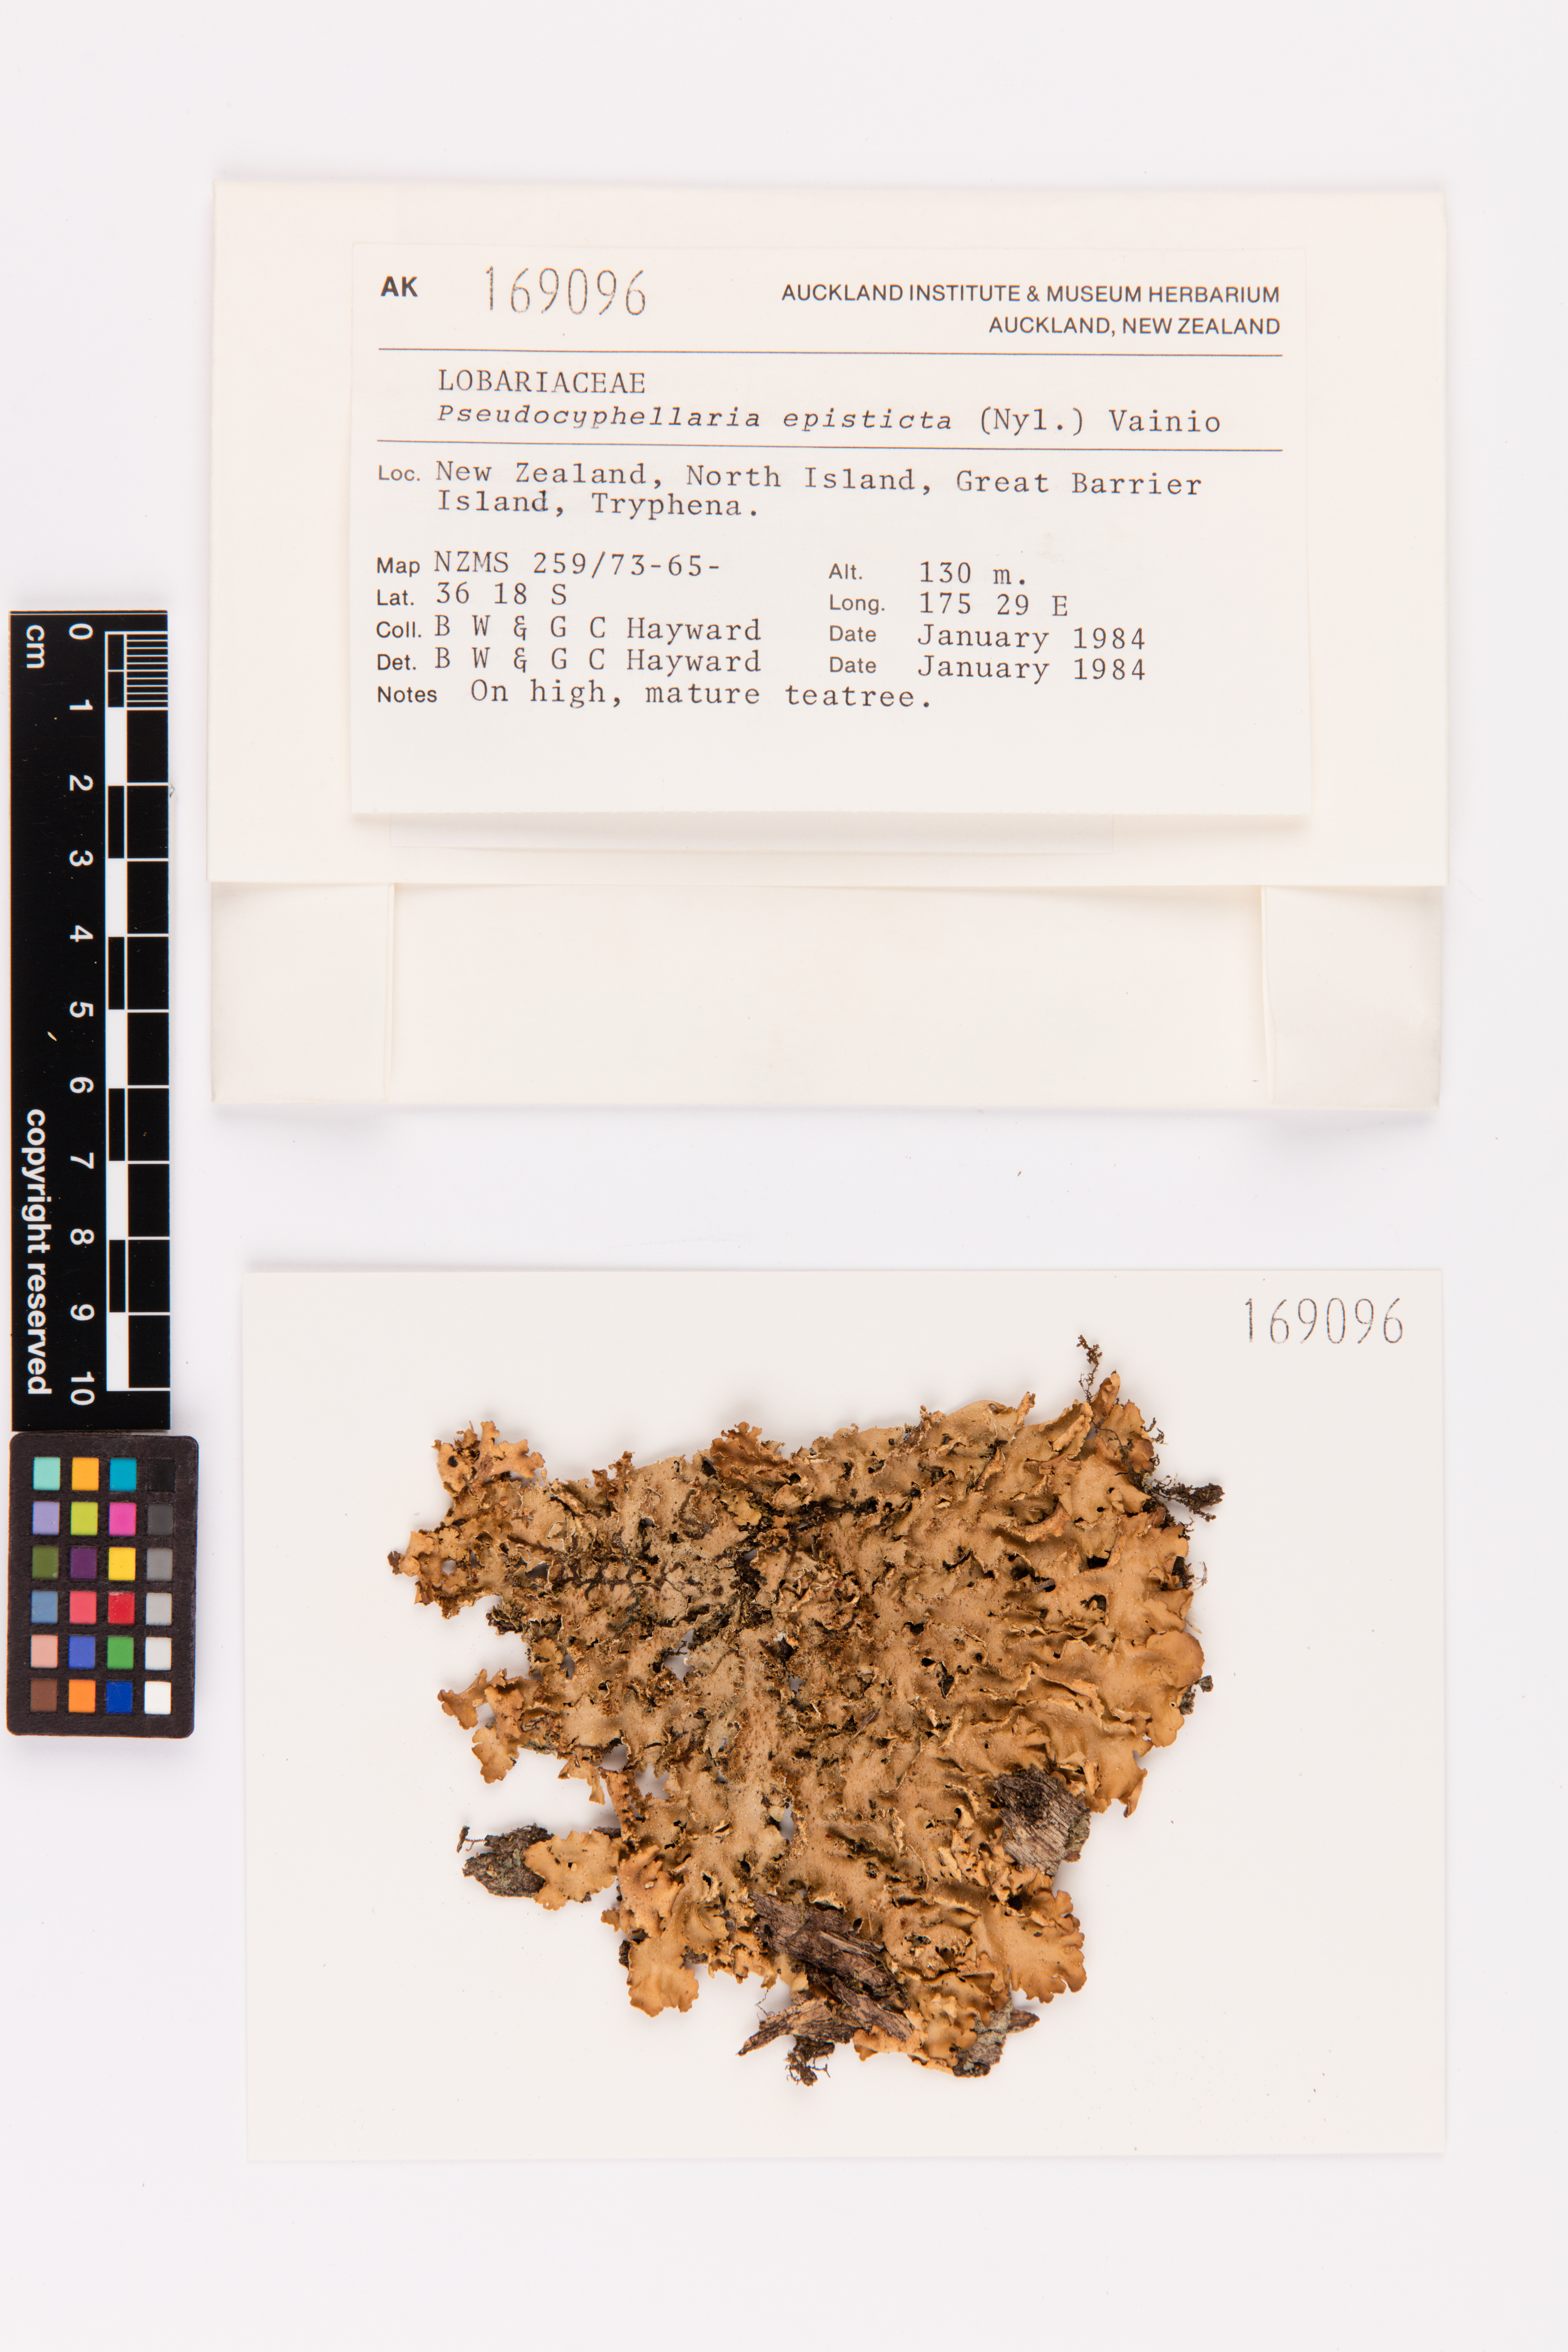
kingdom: Fungi
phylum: Ascomycota
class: Lecanoromycetes
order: Peltigerales
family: Lobariaceae
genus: Pseudocyphellaria
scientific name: Pseudocyphellaria episticta
